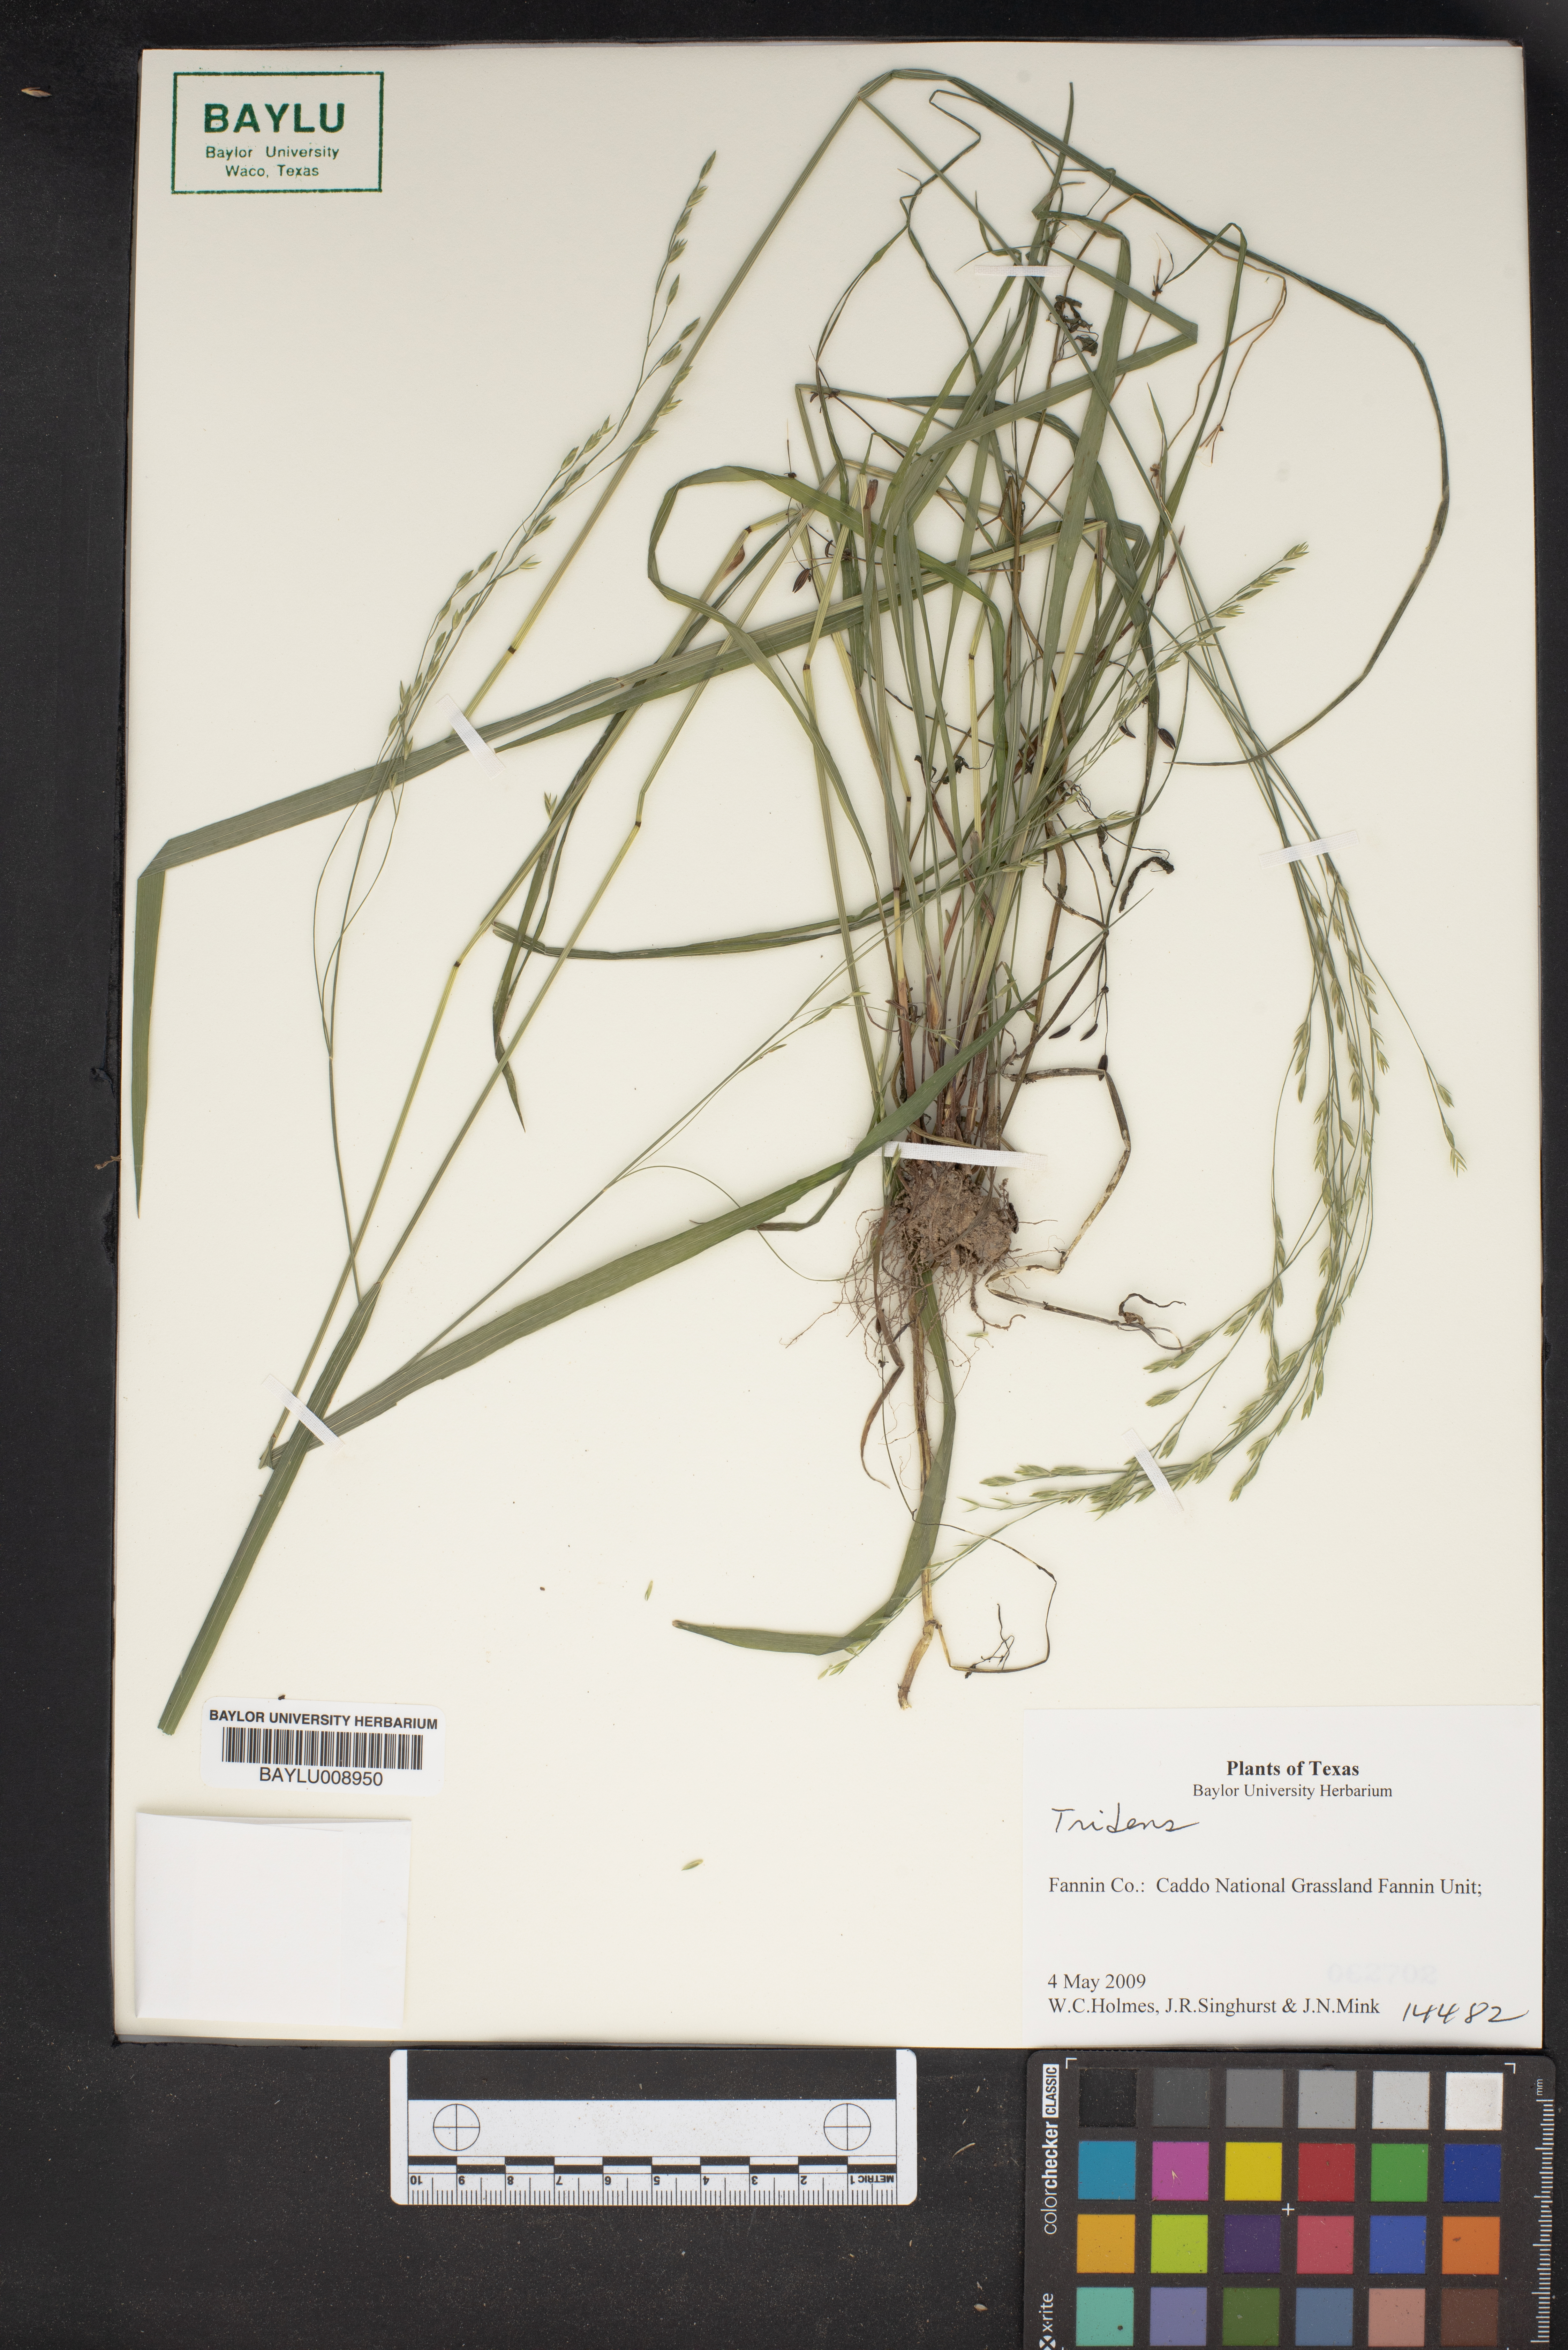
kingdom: Plantae
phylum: Tracheophyta
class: Liliopsida
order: Poales
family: Poaceae
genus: Tridens
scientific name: Tridens
